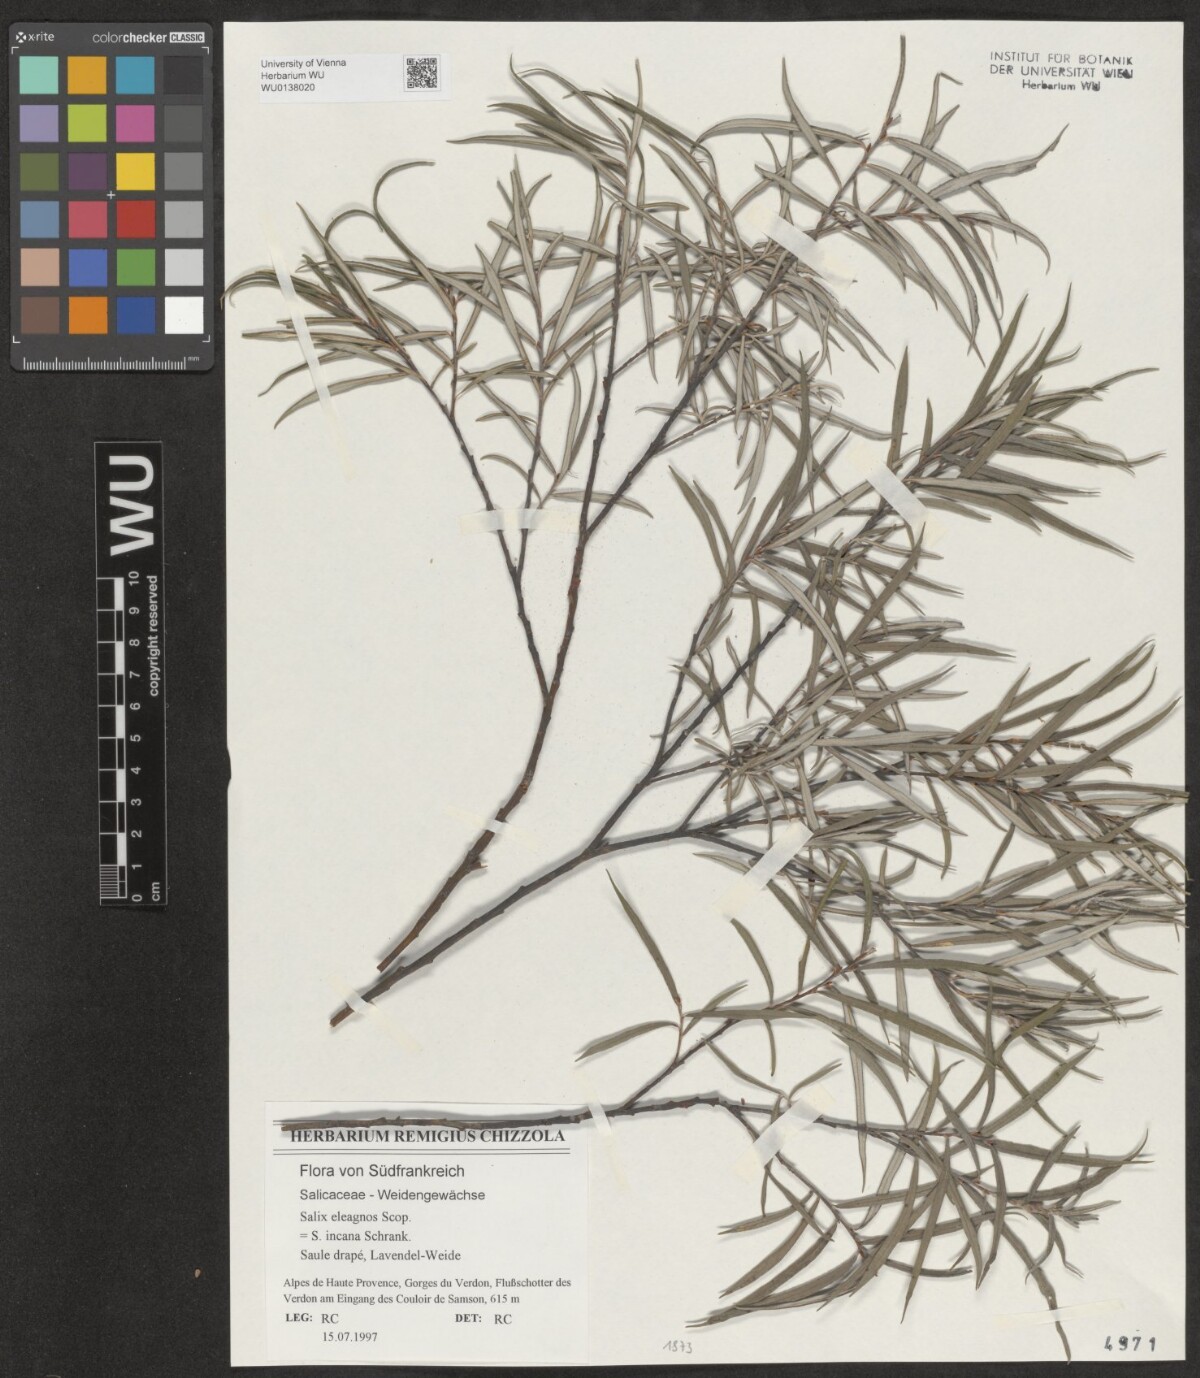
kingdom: Plantae
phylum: Tracheophyta
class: Magnoliopsida
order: Malpighiales
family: Salicaceae
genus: Salix
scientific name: Salix eleagnos
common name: Elaeagnus willow
